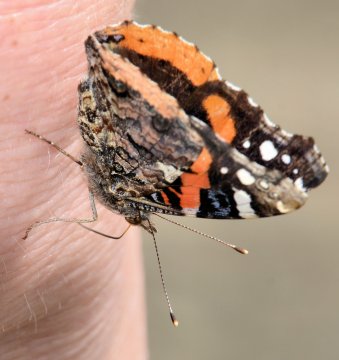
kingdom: Animalia
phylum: Arthropoda
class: Insecta
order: Lepidoptera
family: Nymphalidae
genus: Vanessa
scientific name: Vanessa atalanta
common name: Red Admiral
